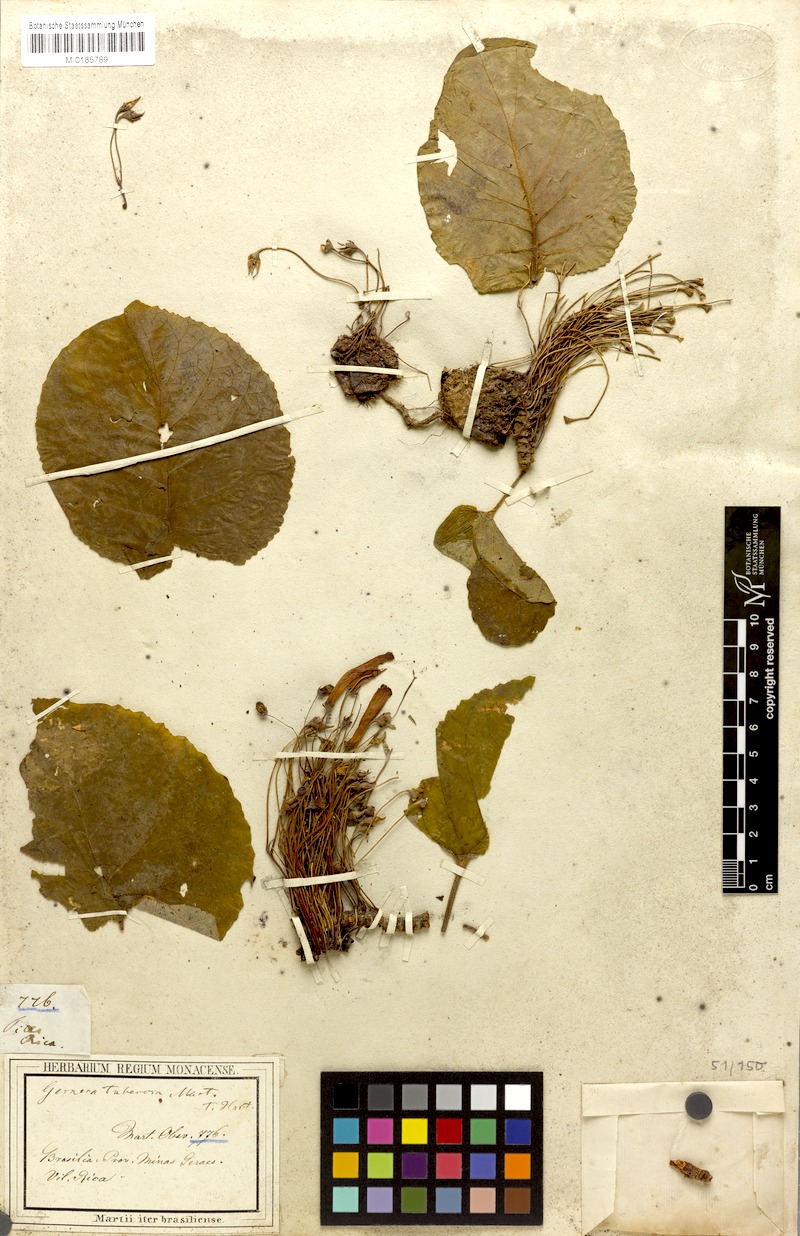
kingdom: Plantae
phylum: Tracheophyta
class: Magnoliopsida
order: Lamiales
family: Gesneriaceae
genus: Sinningia
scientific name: Sinningia tuberosa
